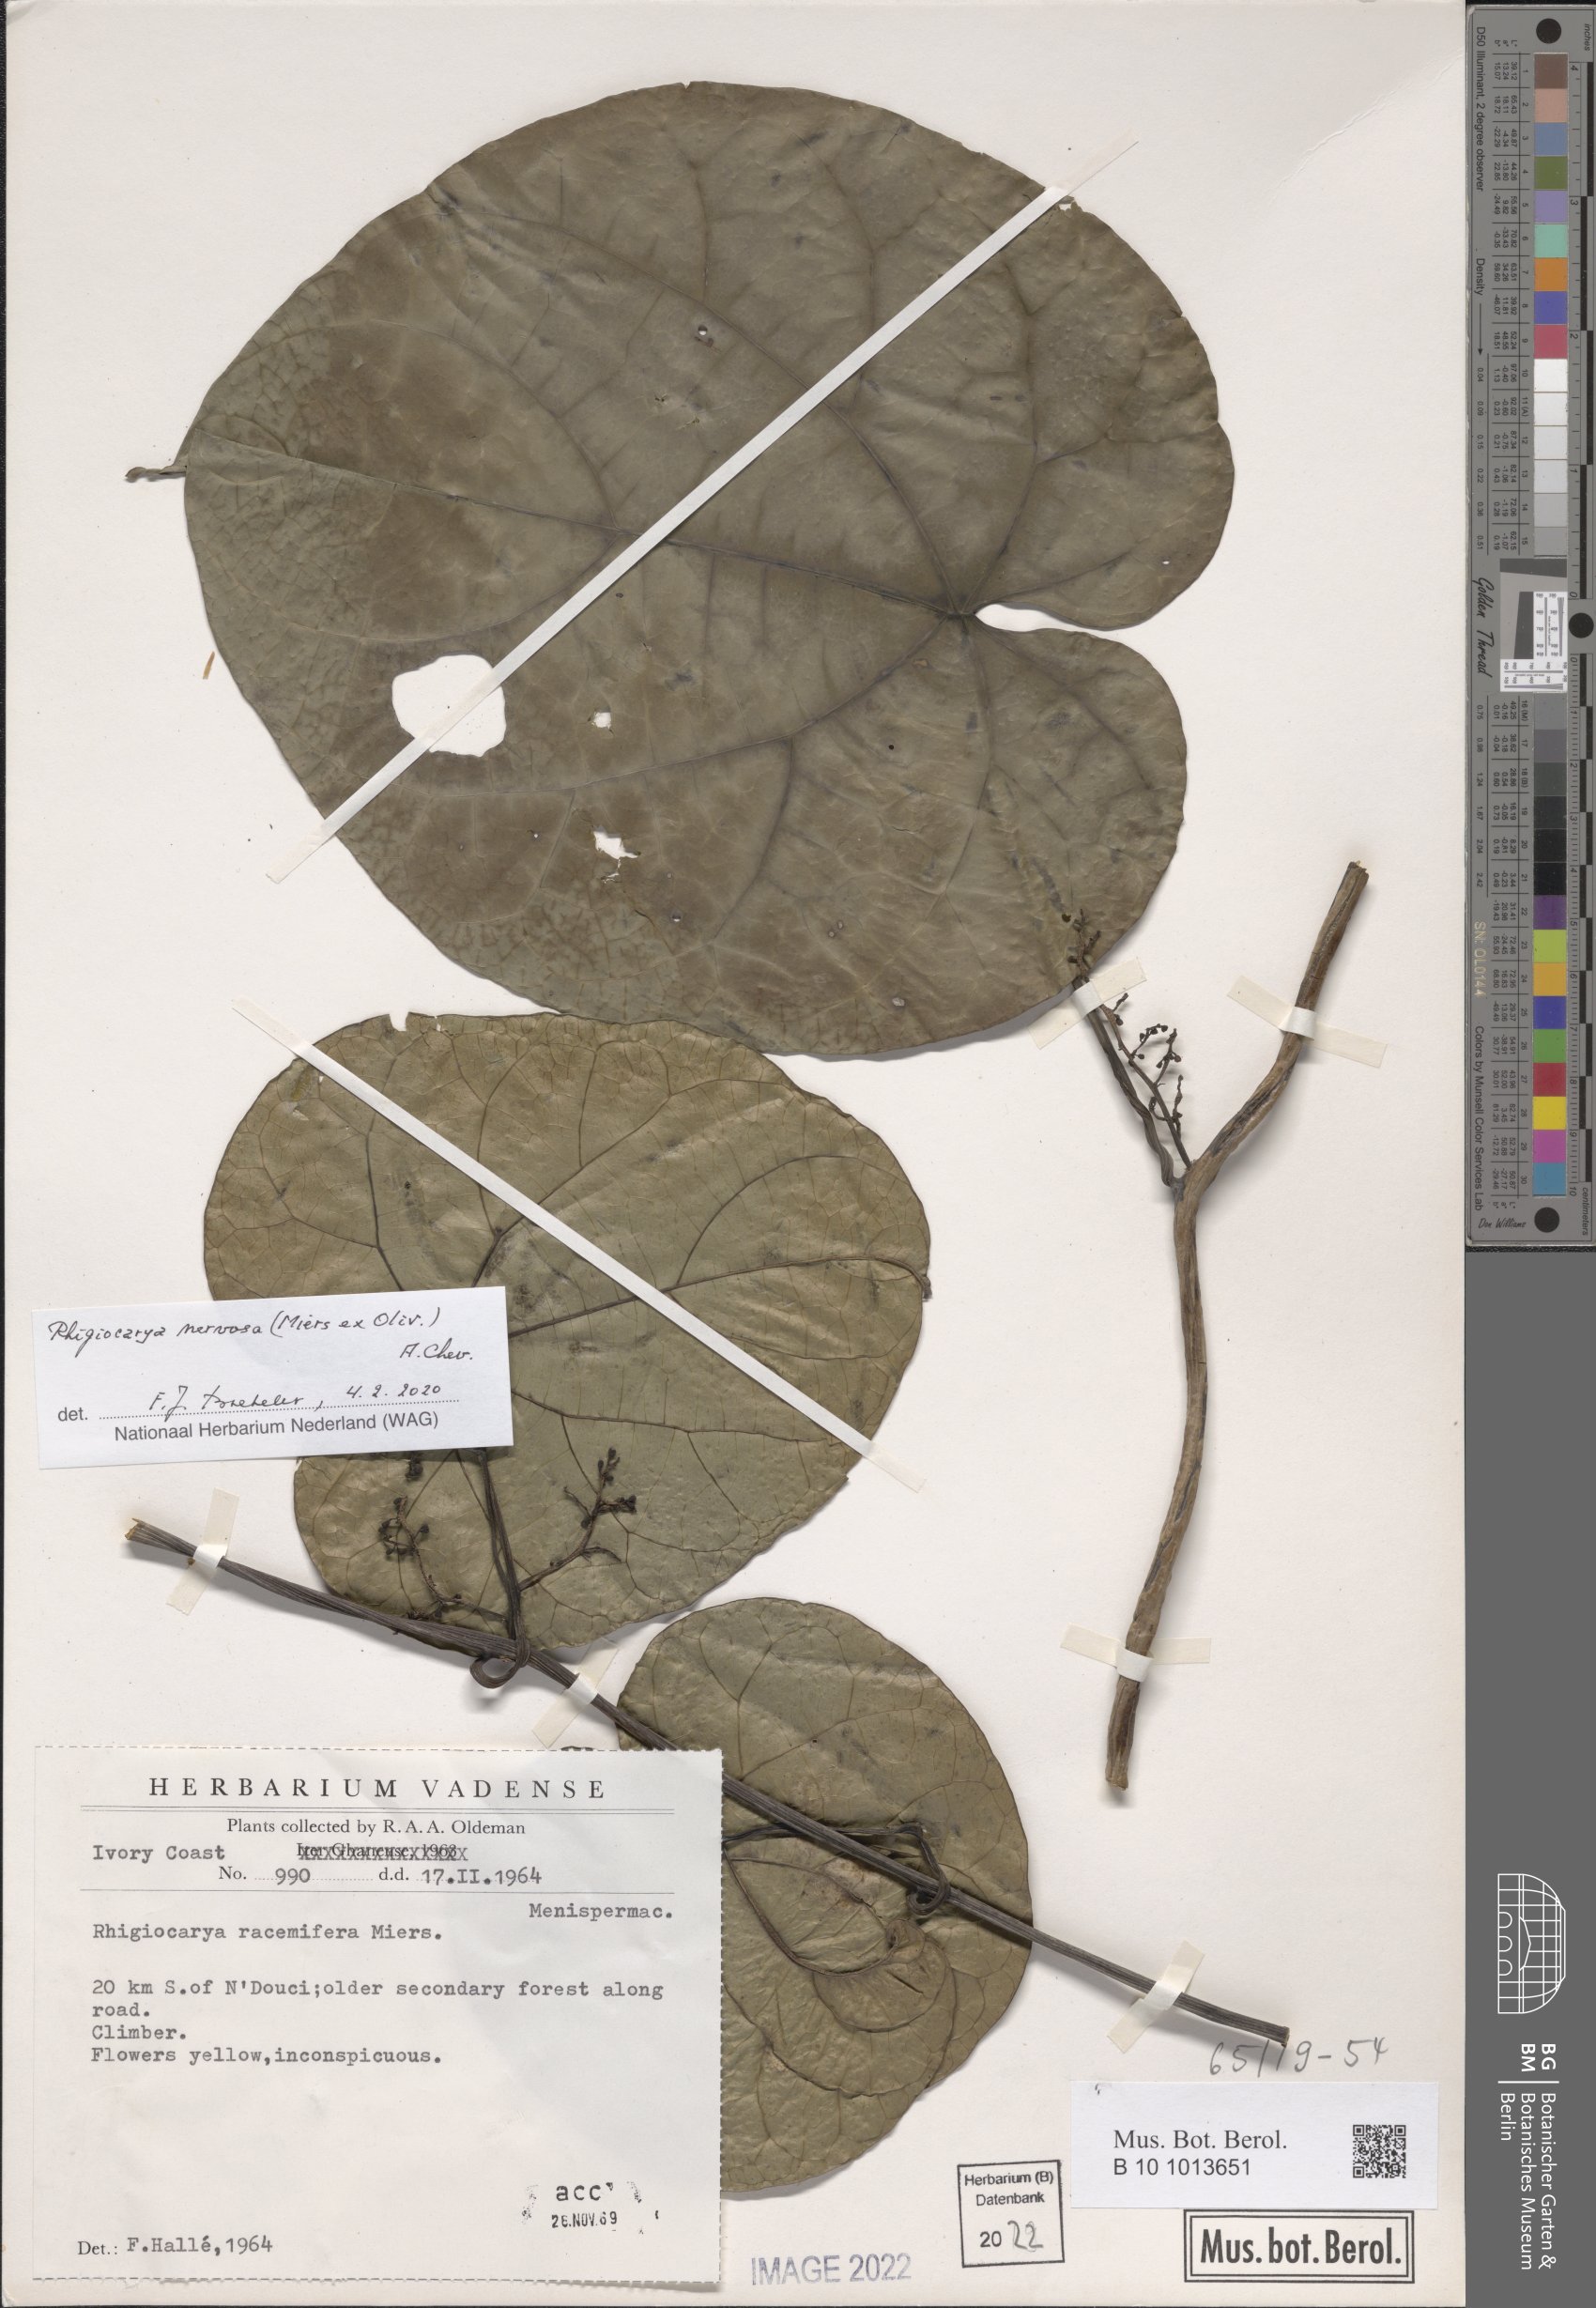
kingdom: Plantae
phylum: Tracheophyta
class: Magnoliopsida
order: Ranunculales
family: Menispermaceae
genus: Rhigiocarya
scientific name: Rhigiocarya racemifera
